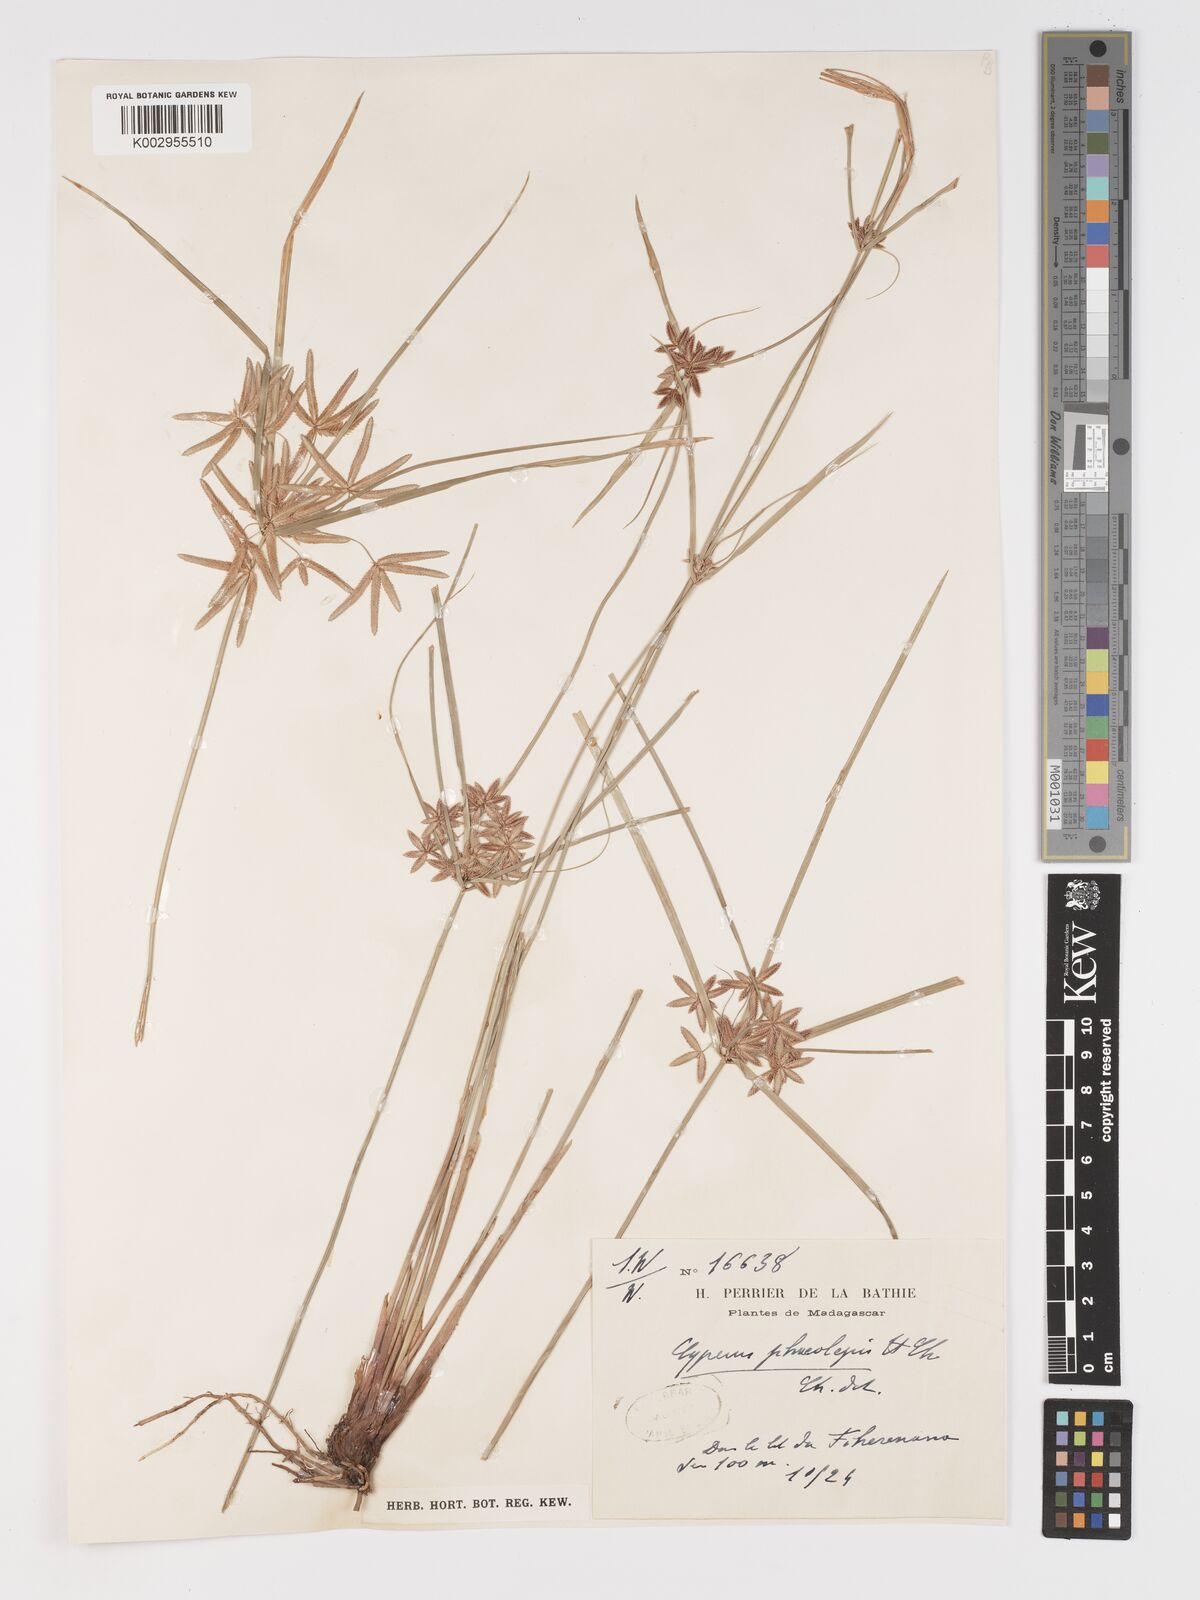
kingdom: Plantae
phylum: Tracheophyta
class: Liliopsida
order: Poales
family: Cyperaceae
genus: Cyperus
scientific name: Cyperus phaeolepis
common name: Madagascar flatsedge
